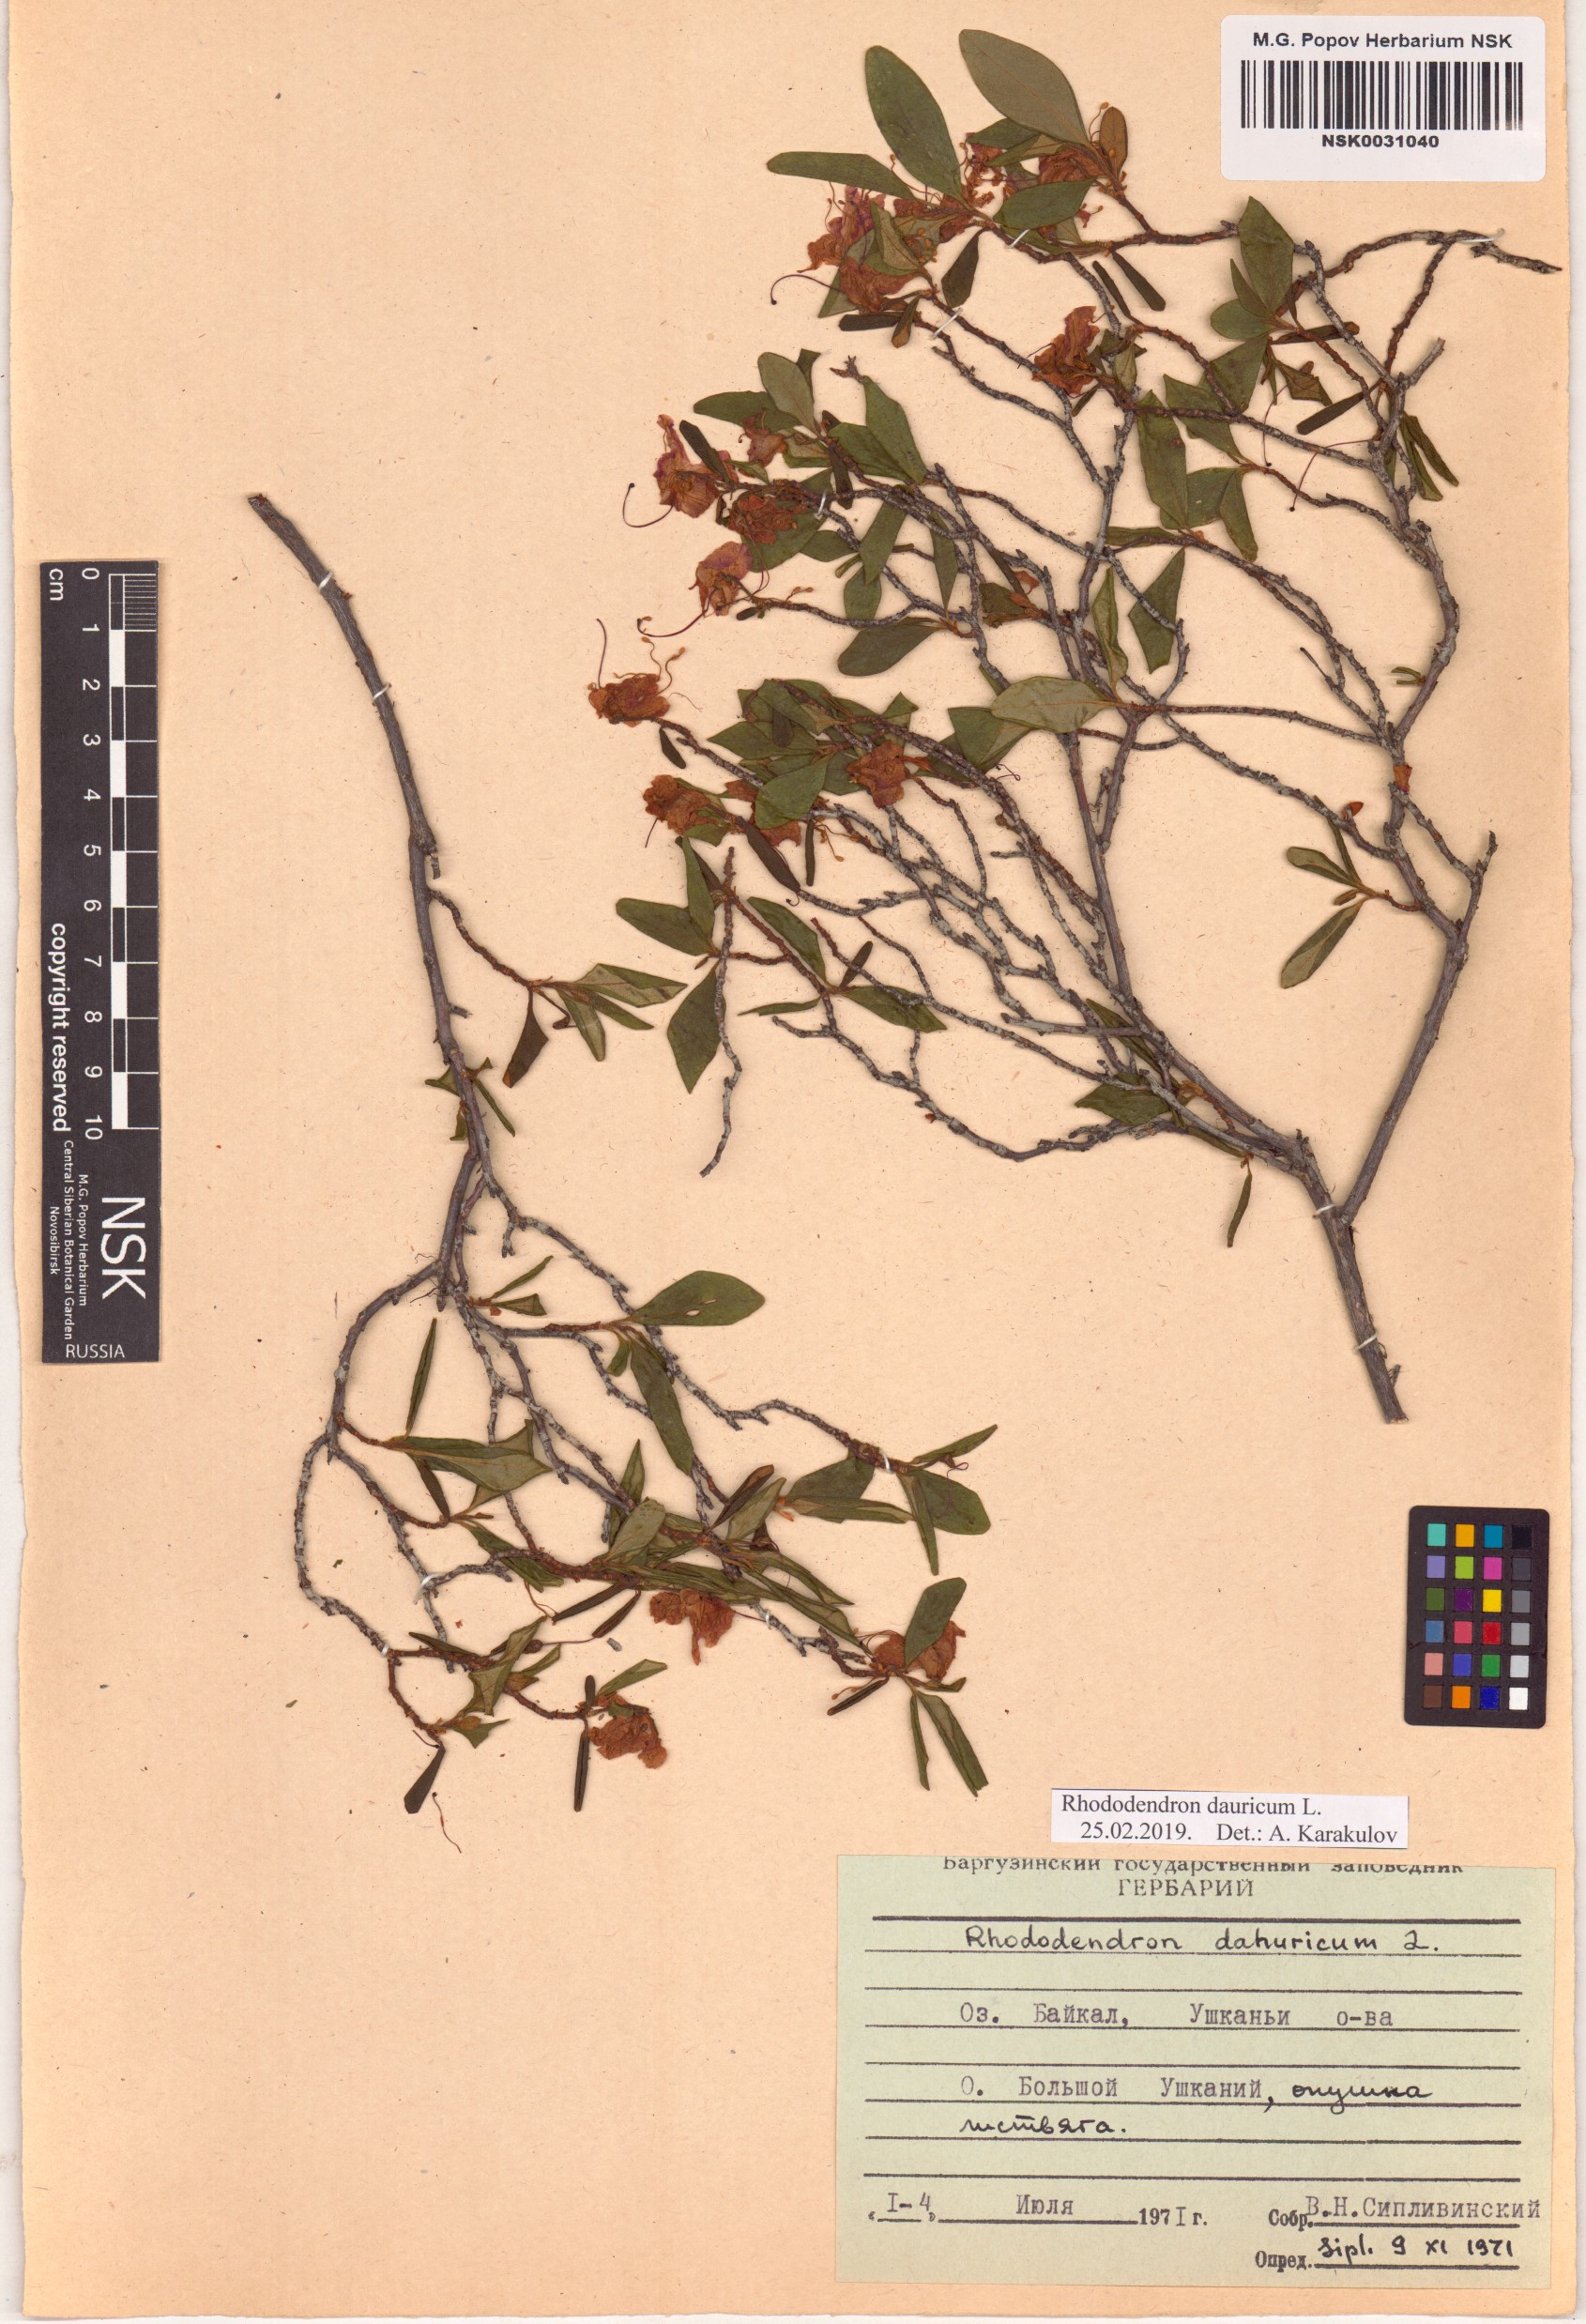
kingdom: Plantae
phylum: Tracheophyta
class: Magnoliopsida
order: Ericales
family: Ericaceae
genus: Rhododendron
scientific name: Rhododendron dauricum
